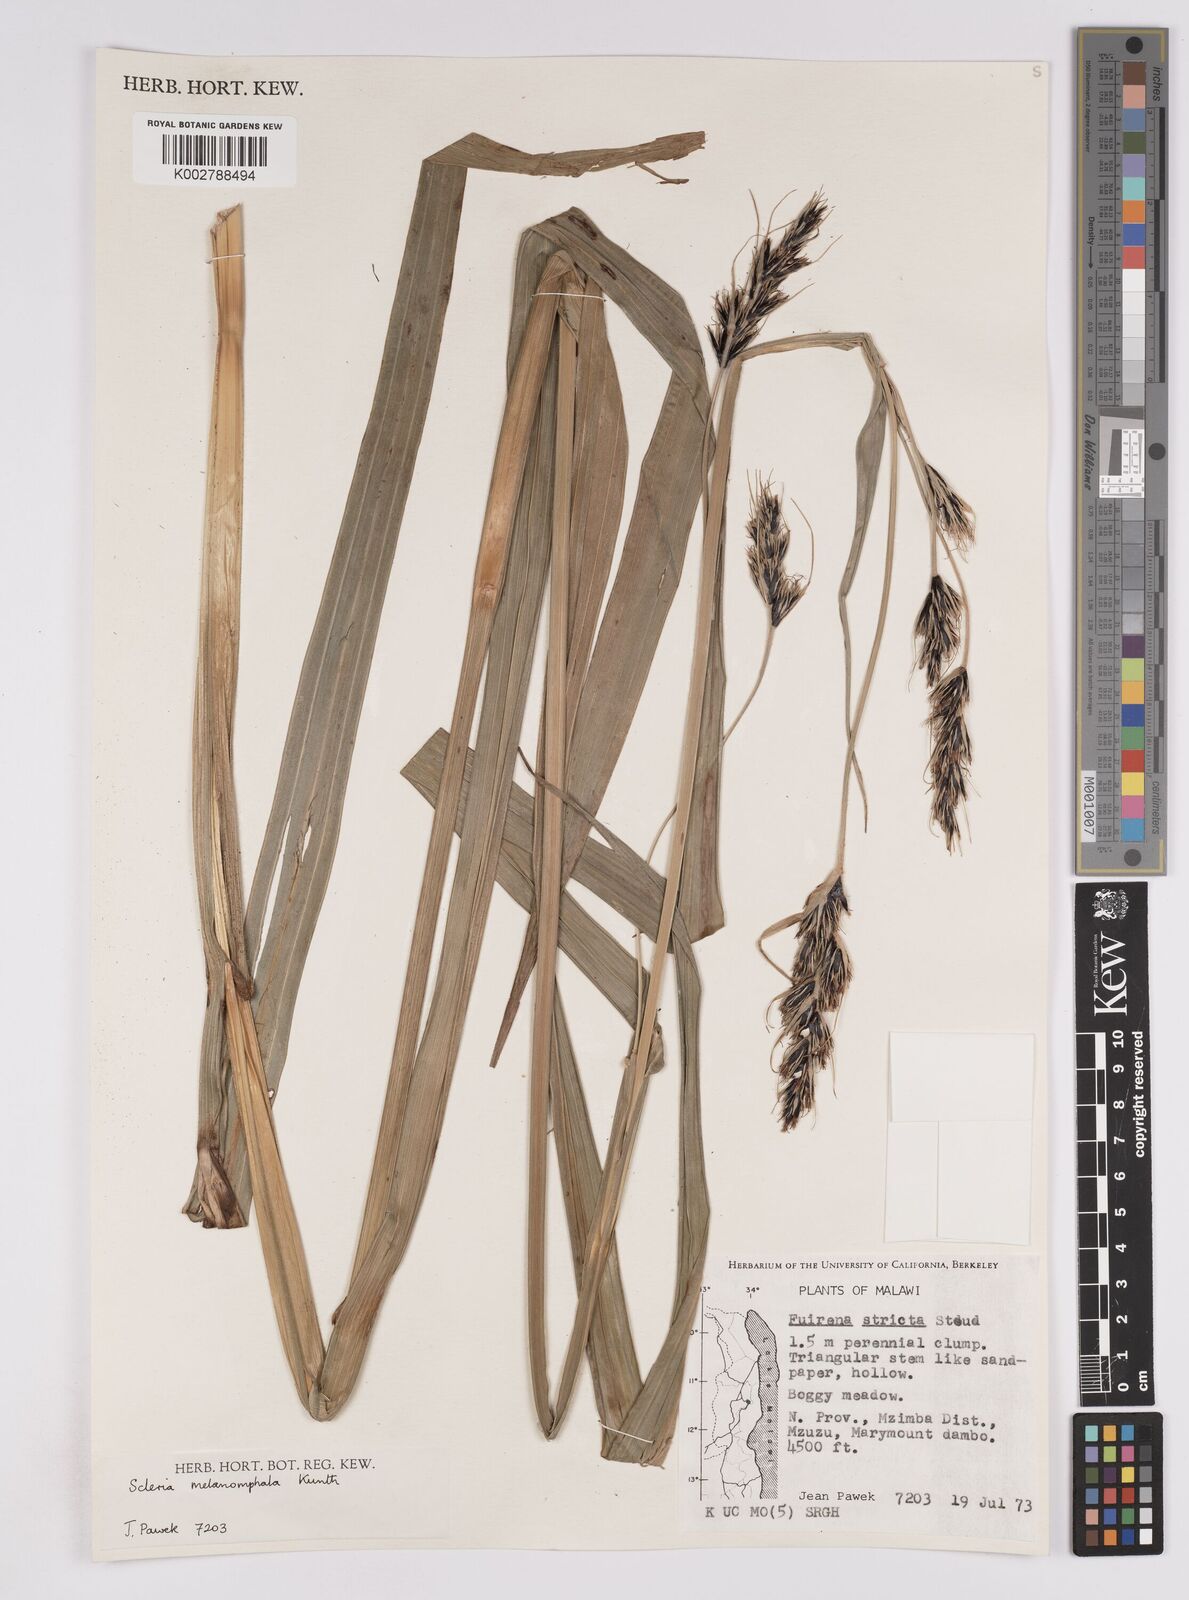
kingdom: Plantae
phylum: Tracheophyta
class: Liliopsida
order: Poales
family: Cyperaceae
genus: Scleria
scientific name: Scleria melanomphala
